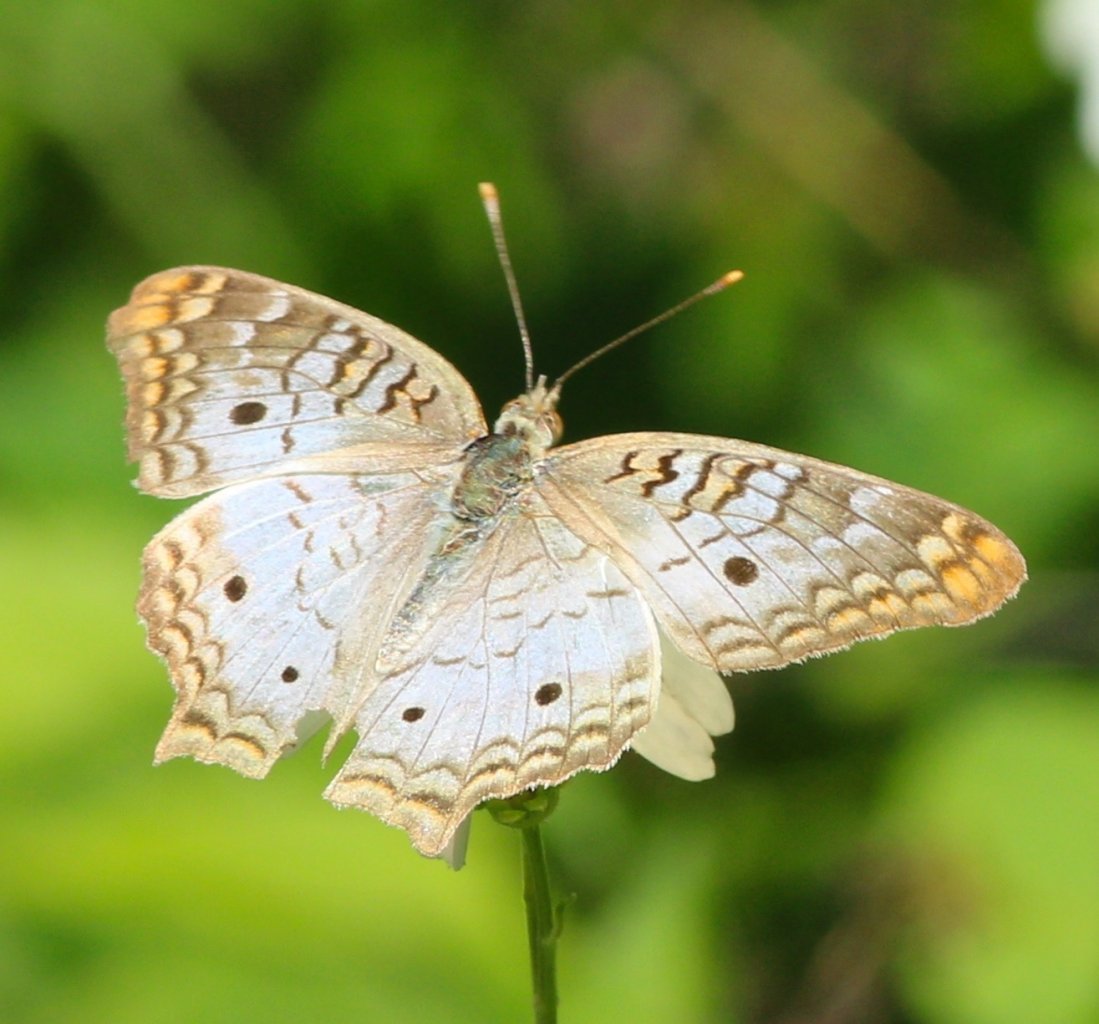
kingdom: Animalia
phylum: Arthropoda
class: Insecta
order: Lepidoptera
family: Nymphalidae
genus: Anartia
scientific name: Anartia jatrophae
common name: White Peacock
